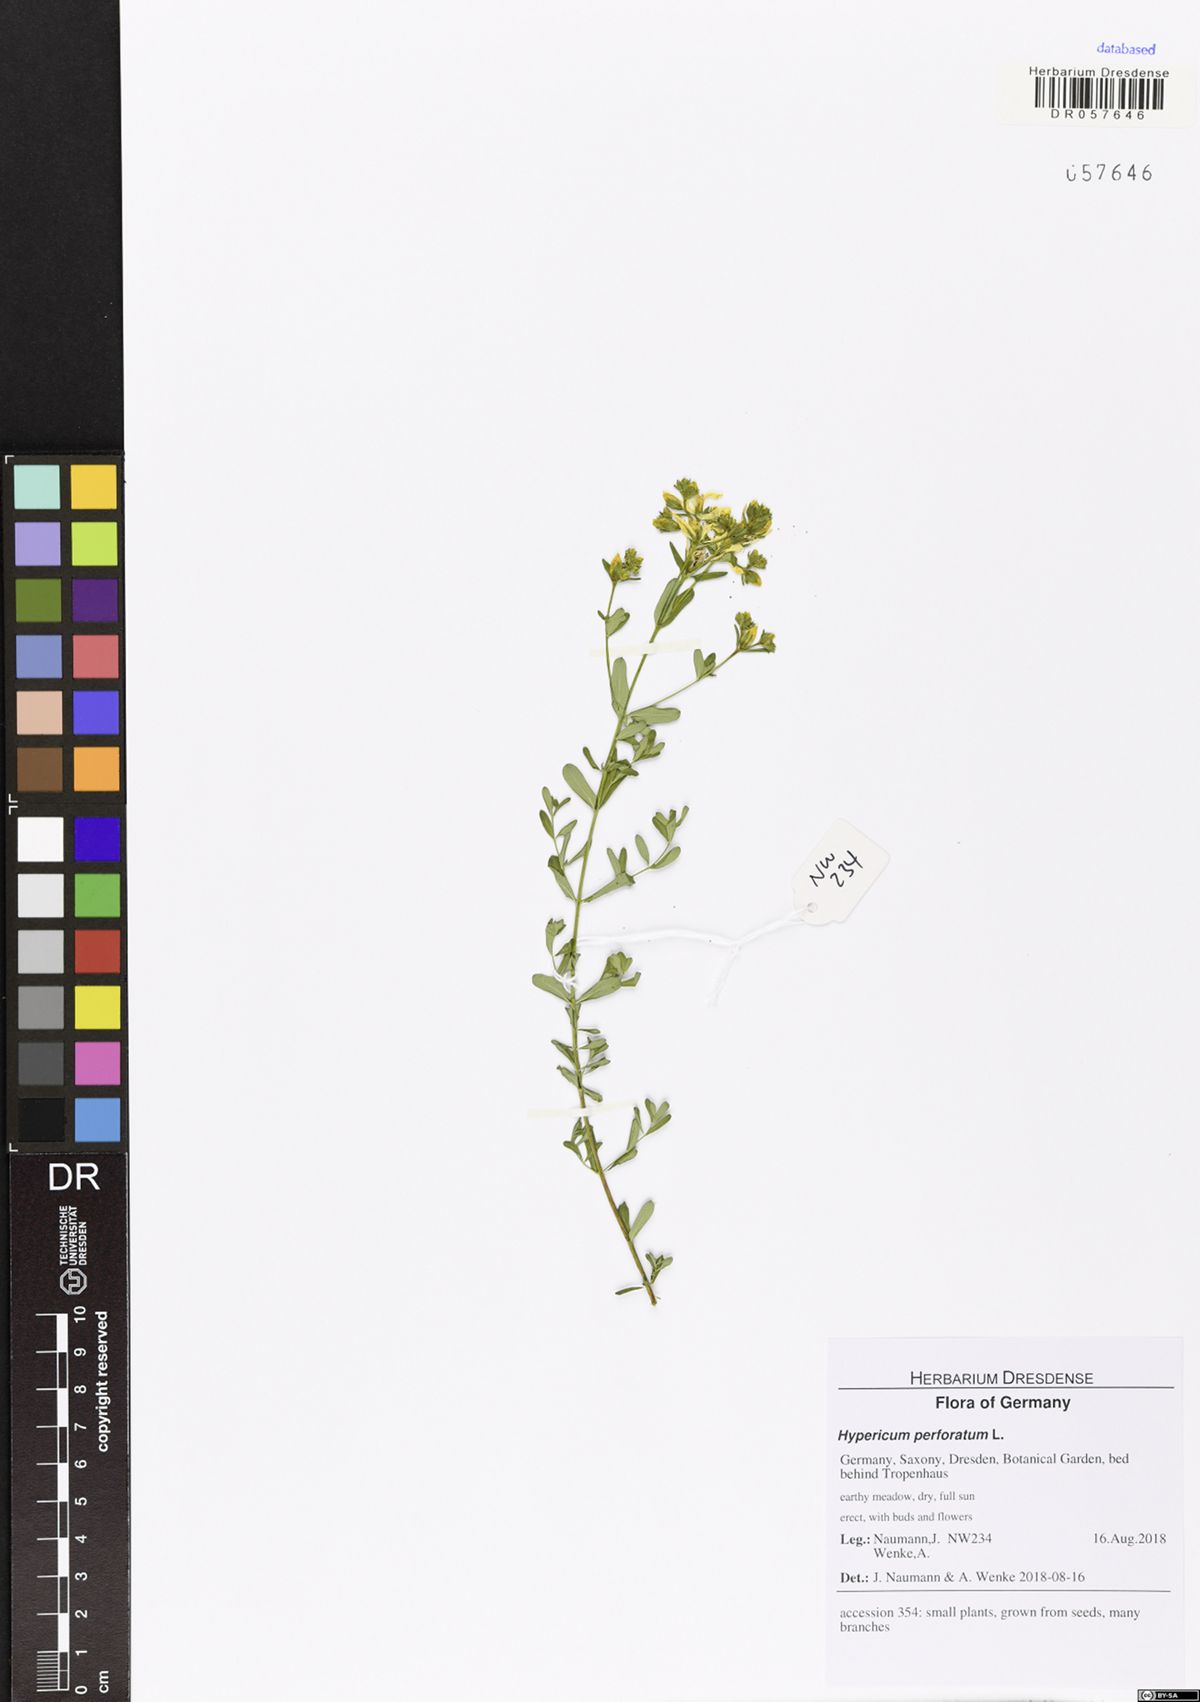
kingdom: Plantae
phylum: Tracheophyta
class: Magnoliopsida
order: Malpighiales
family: Hypericaceae
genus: Hypericum
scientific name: Hypericum perforatum
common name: Common st. johnswort
